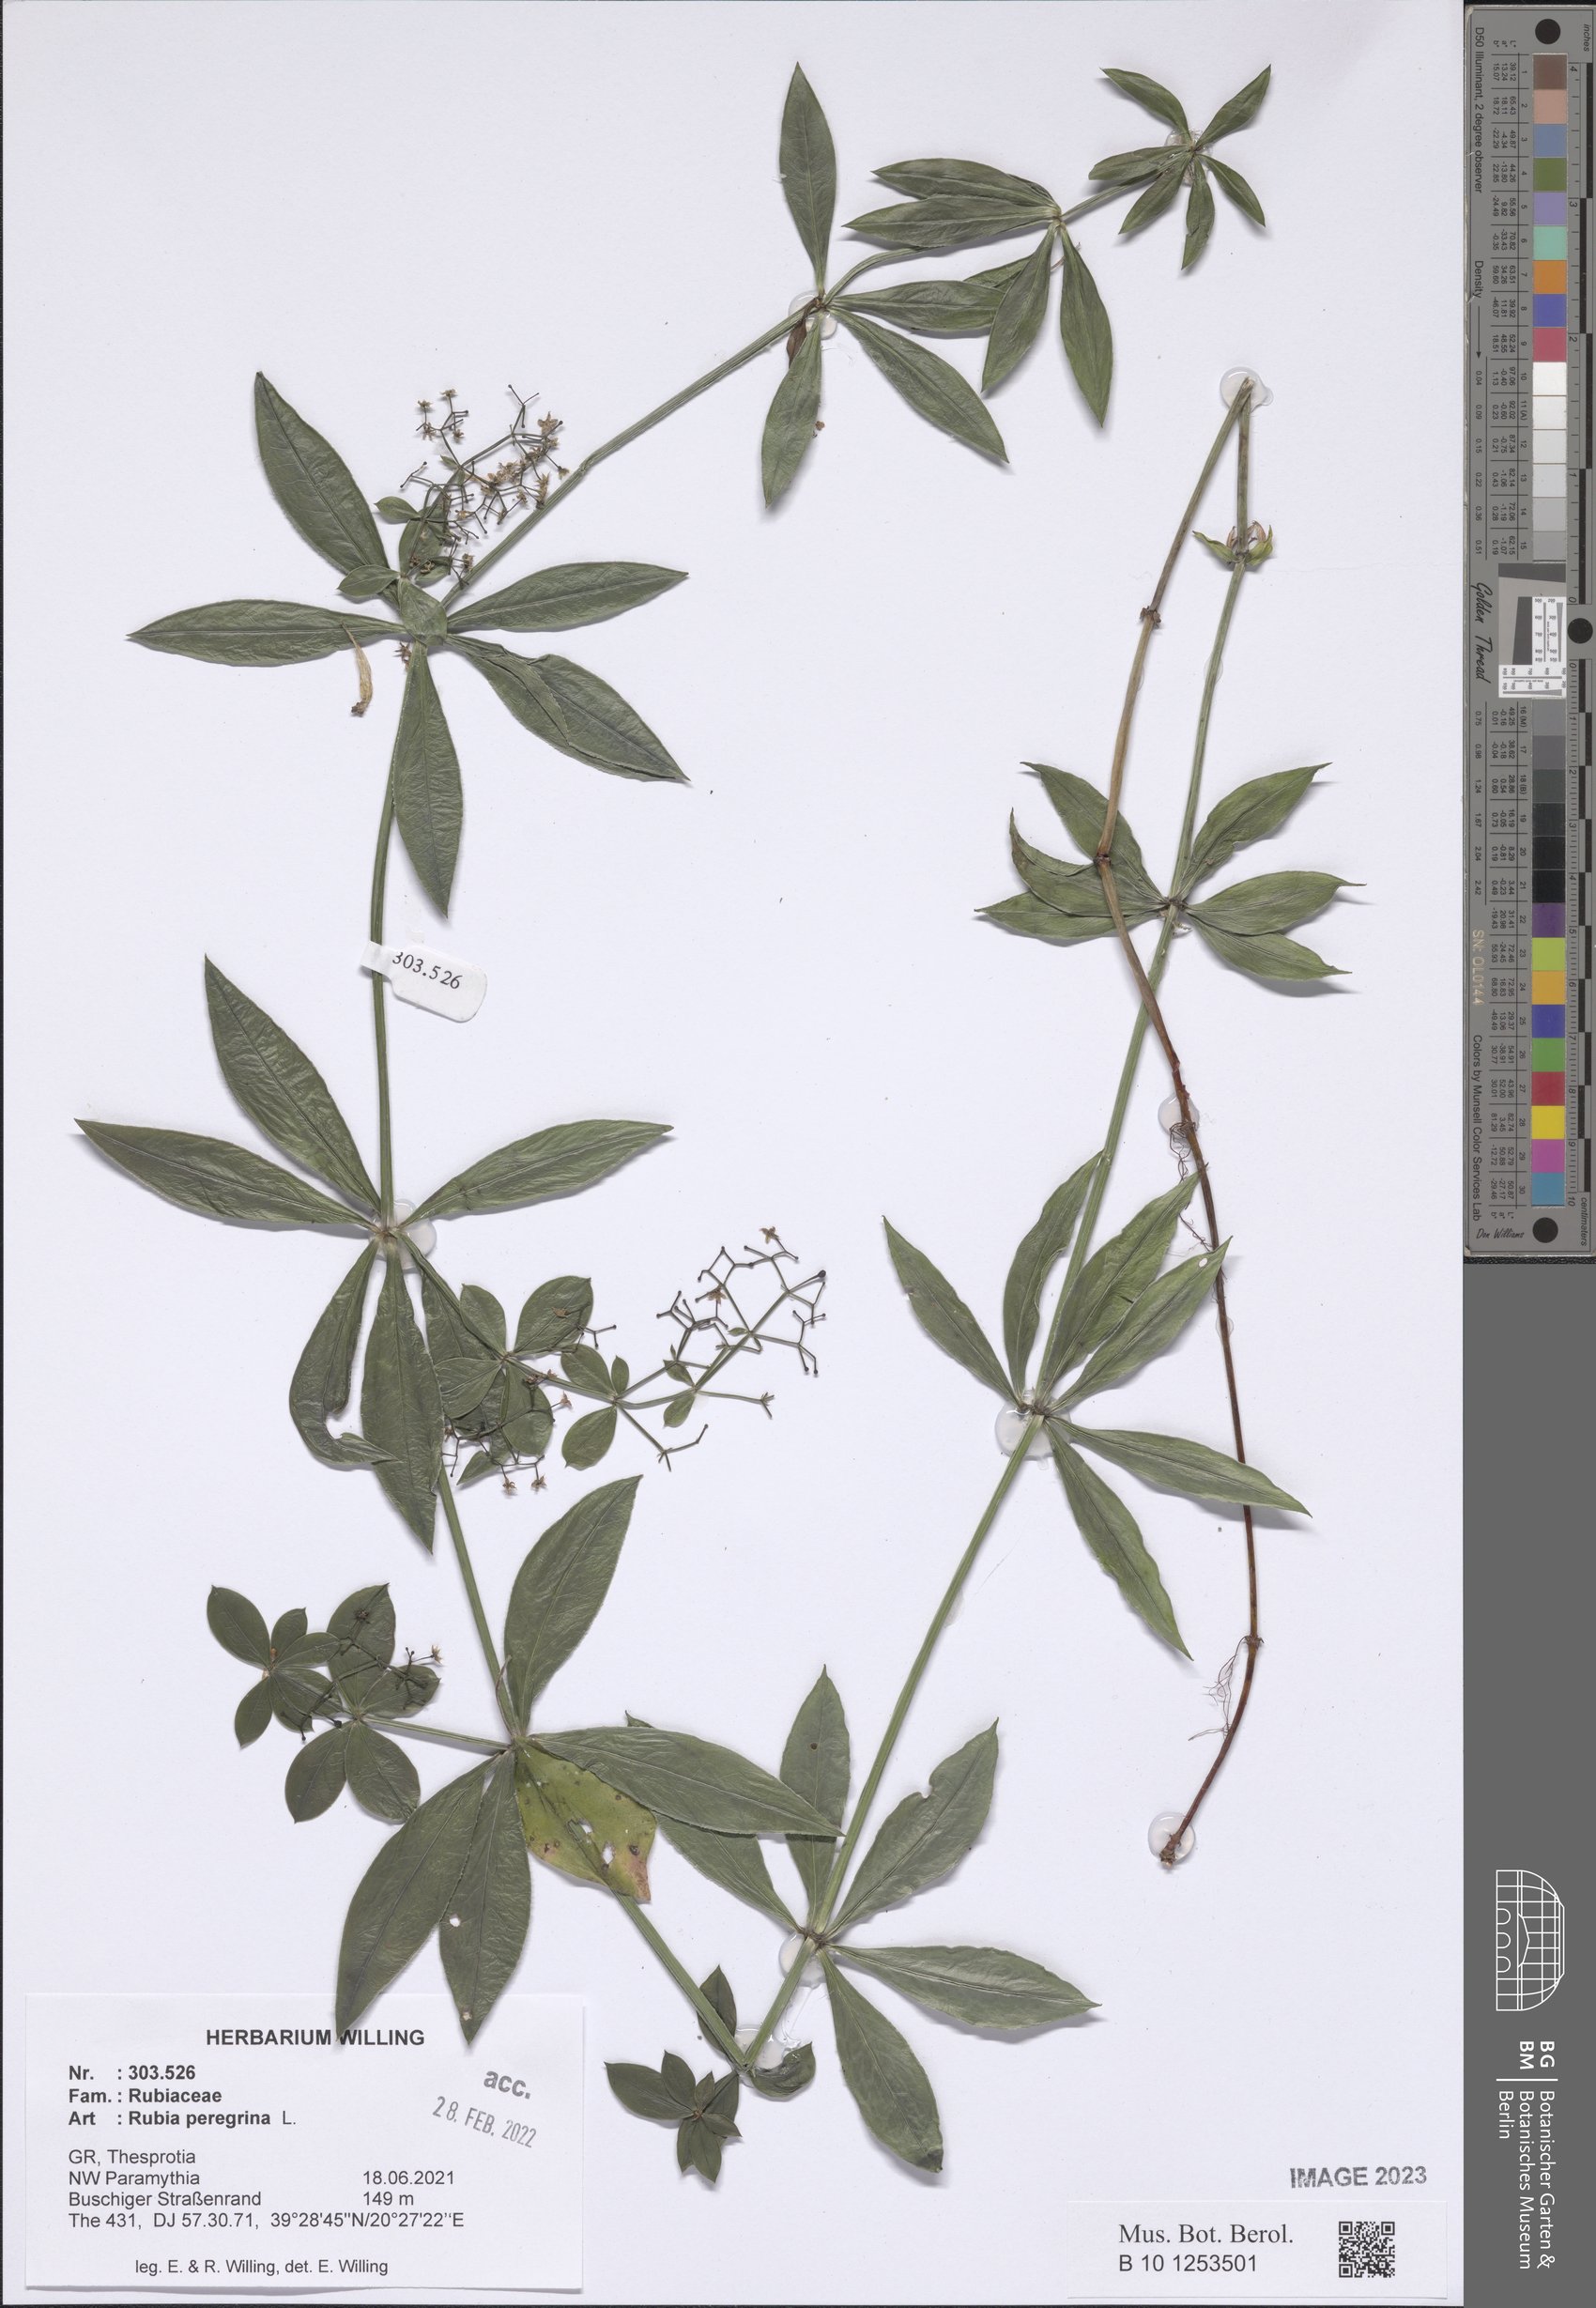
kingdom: Plantae
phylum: Tracheophyta
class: Magnoliopsida
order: Gentianales
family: Rubiaceae
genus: Rubia
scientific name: Rubia peregrina
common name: Wild madder
